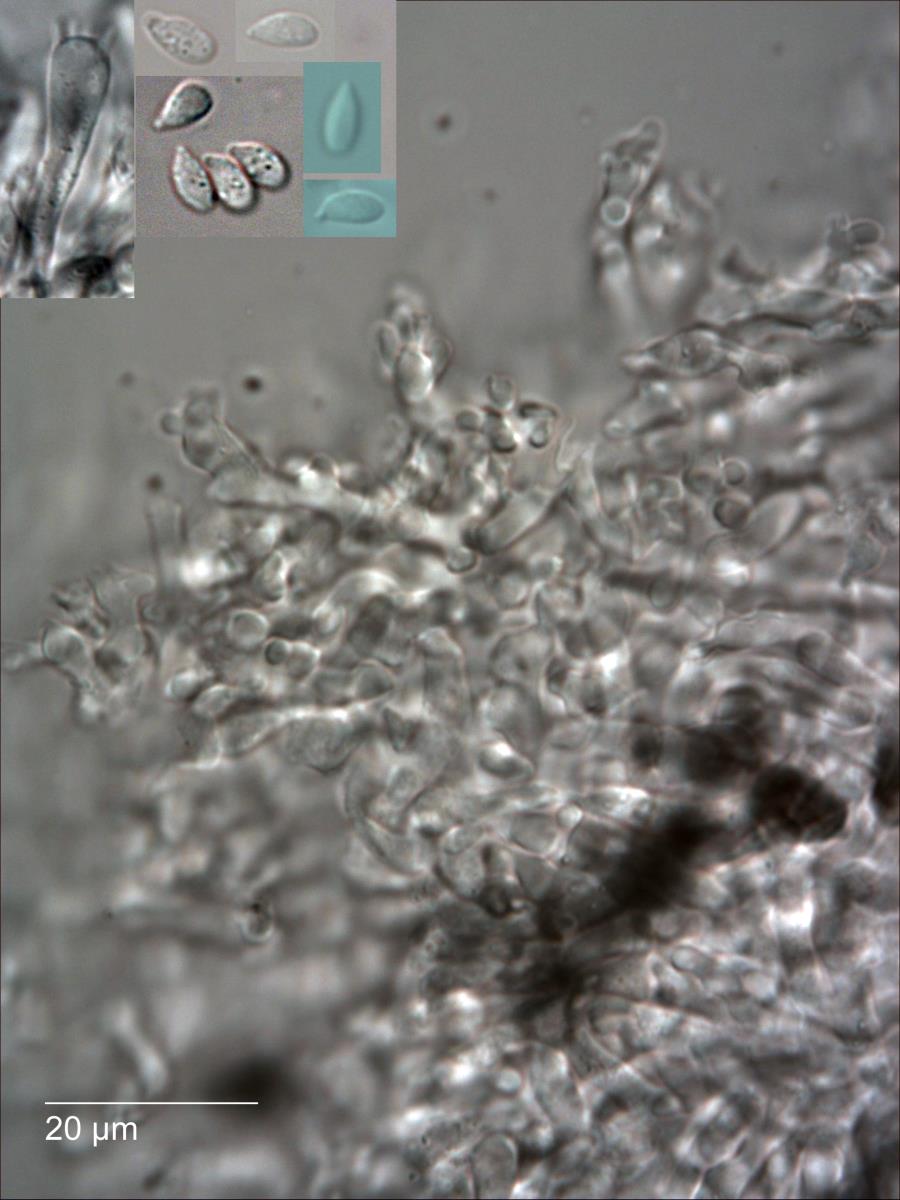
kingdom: Fungi
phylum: Basidiomycota
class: Agaricomycetes
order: Agaricales
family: Omphalotaceae
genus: Marasmiellus
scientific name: Marasmiellus
